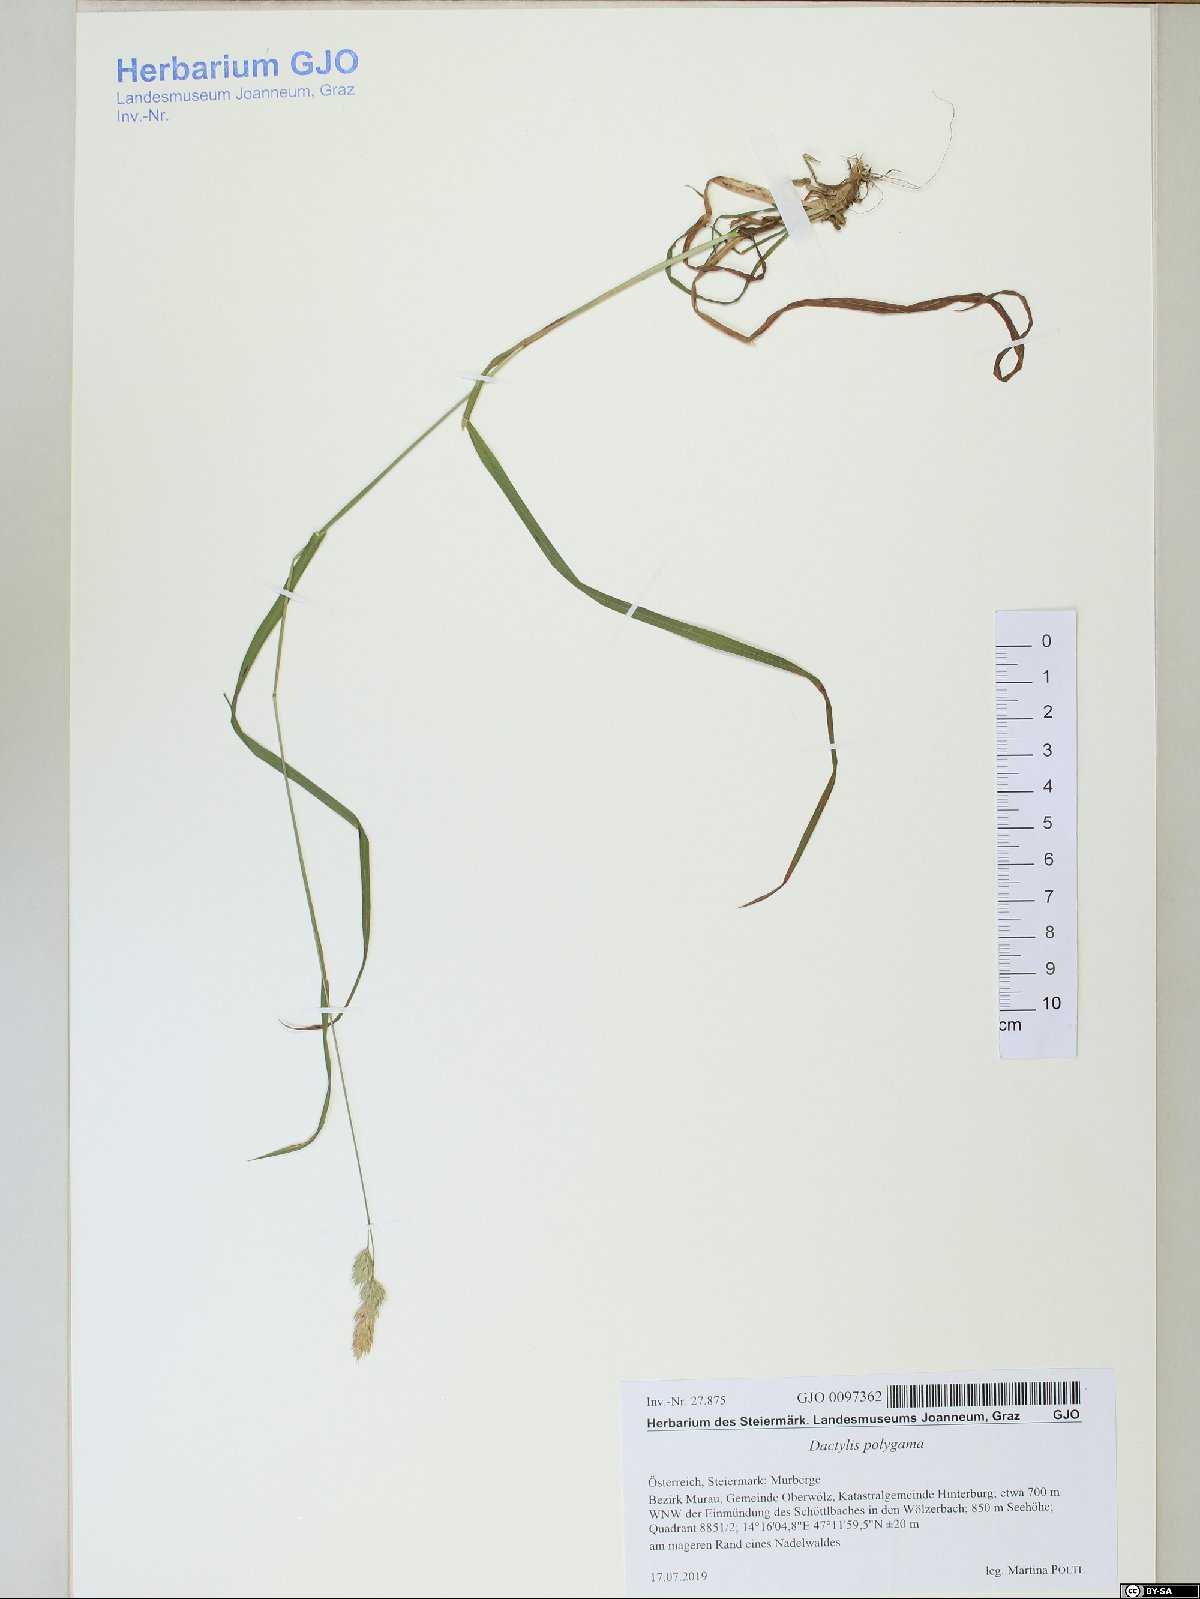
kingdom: Plantae
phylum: Tracheophyta
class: Liliopsida
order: Poales
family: Poaceae
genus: Dactylis
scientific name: Dactylis glomerata
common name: Orchardgrass
